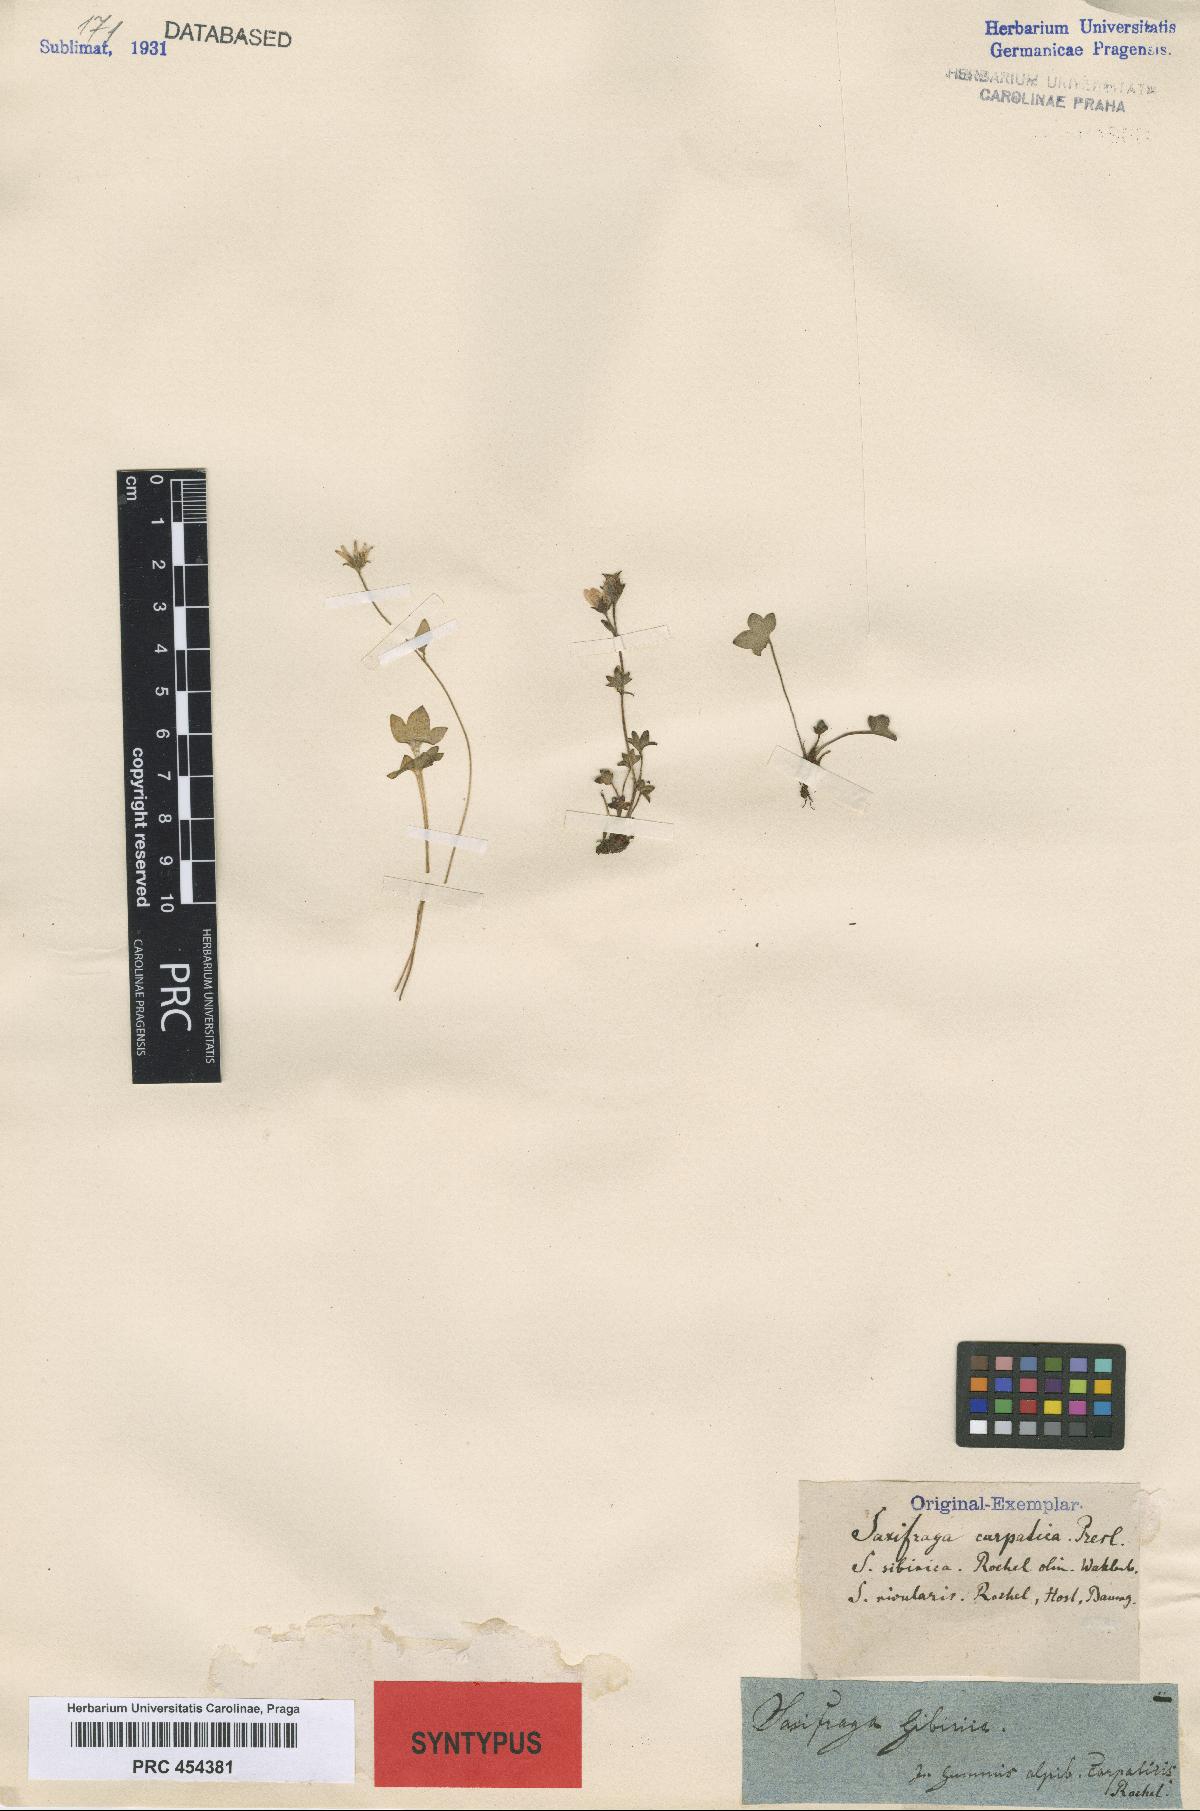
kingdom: Plantae
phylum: Tracheophyta
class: Magnoliopsida
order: Saxifragales
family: Saxifragaceae
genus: Saxifraga
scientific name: Saxifraga carpatica
